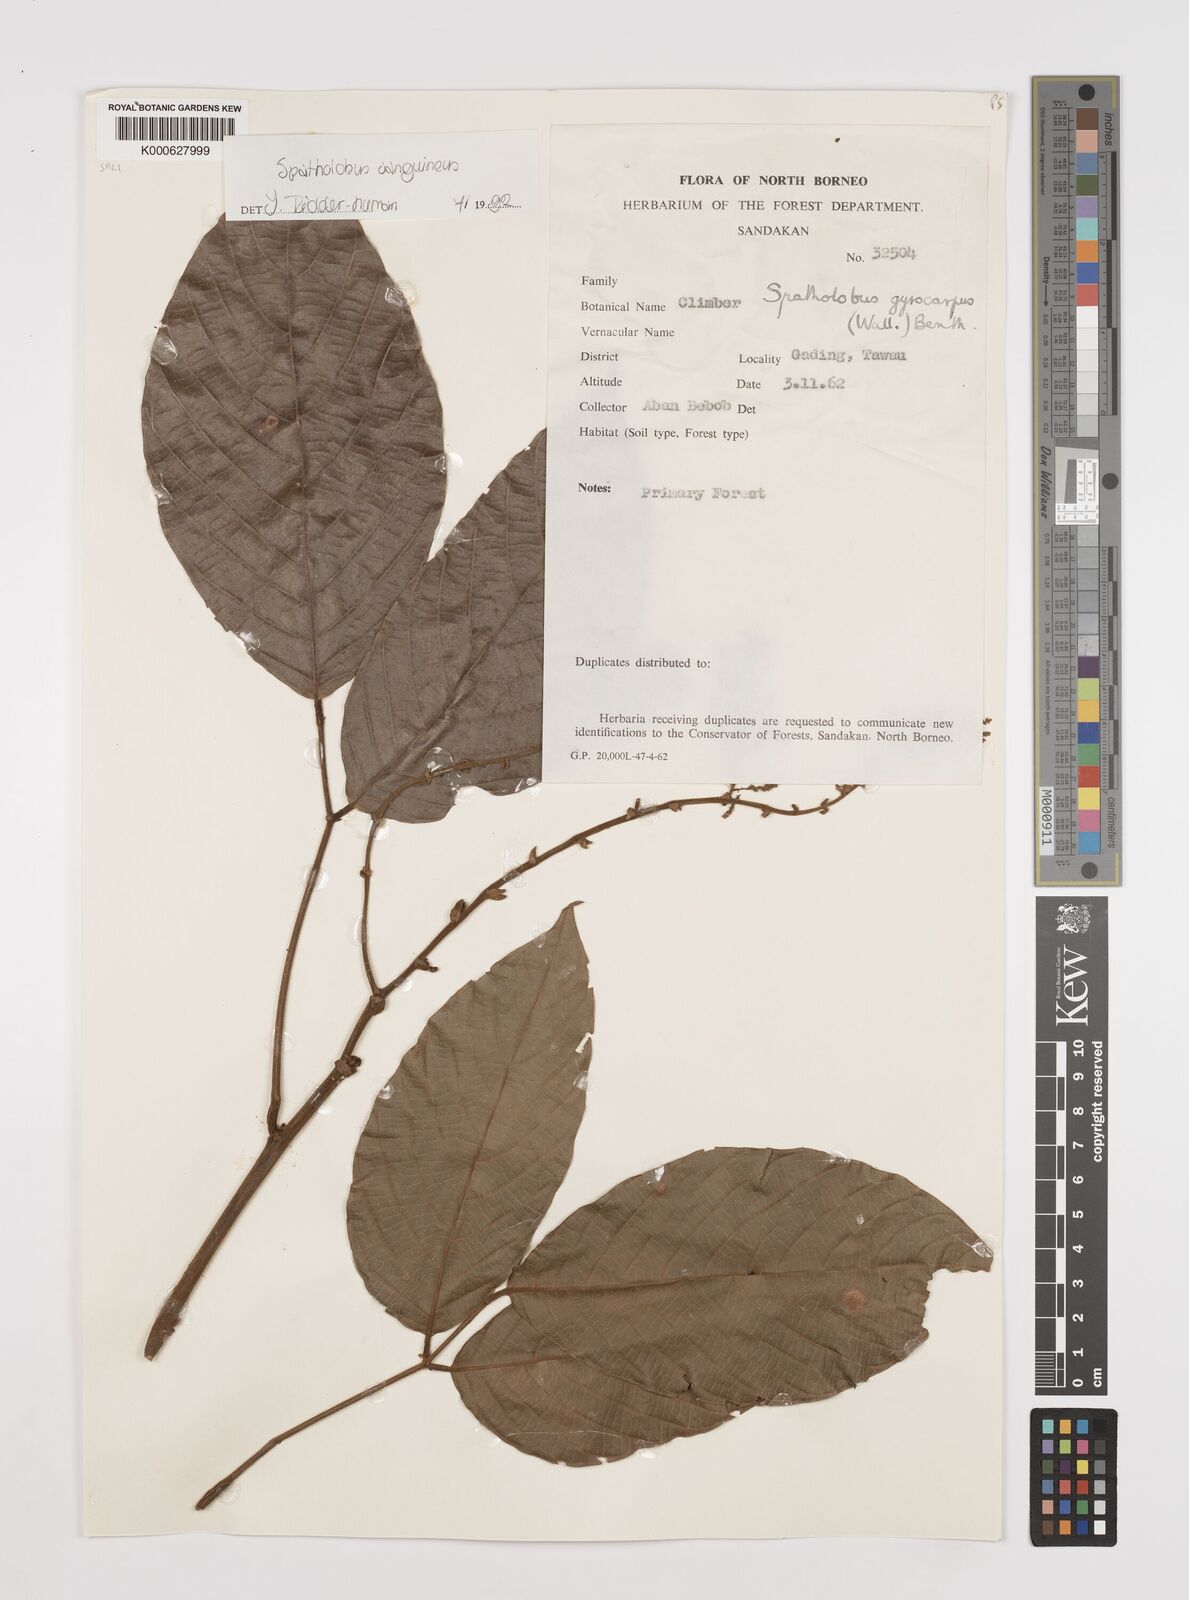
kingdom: Plantae
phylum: Tracheophyta
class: Magnoliopsida
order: Fabales
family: Fabaceae
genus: Spatholobus
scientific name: Spatholobus
